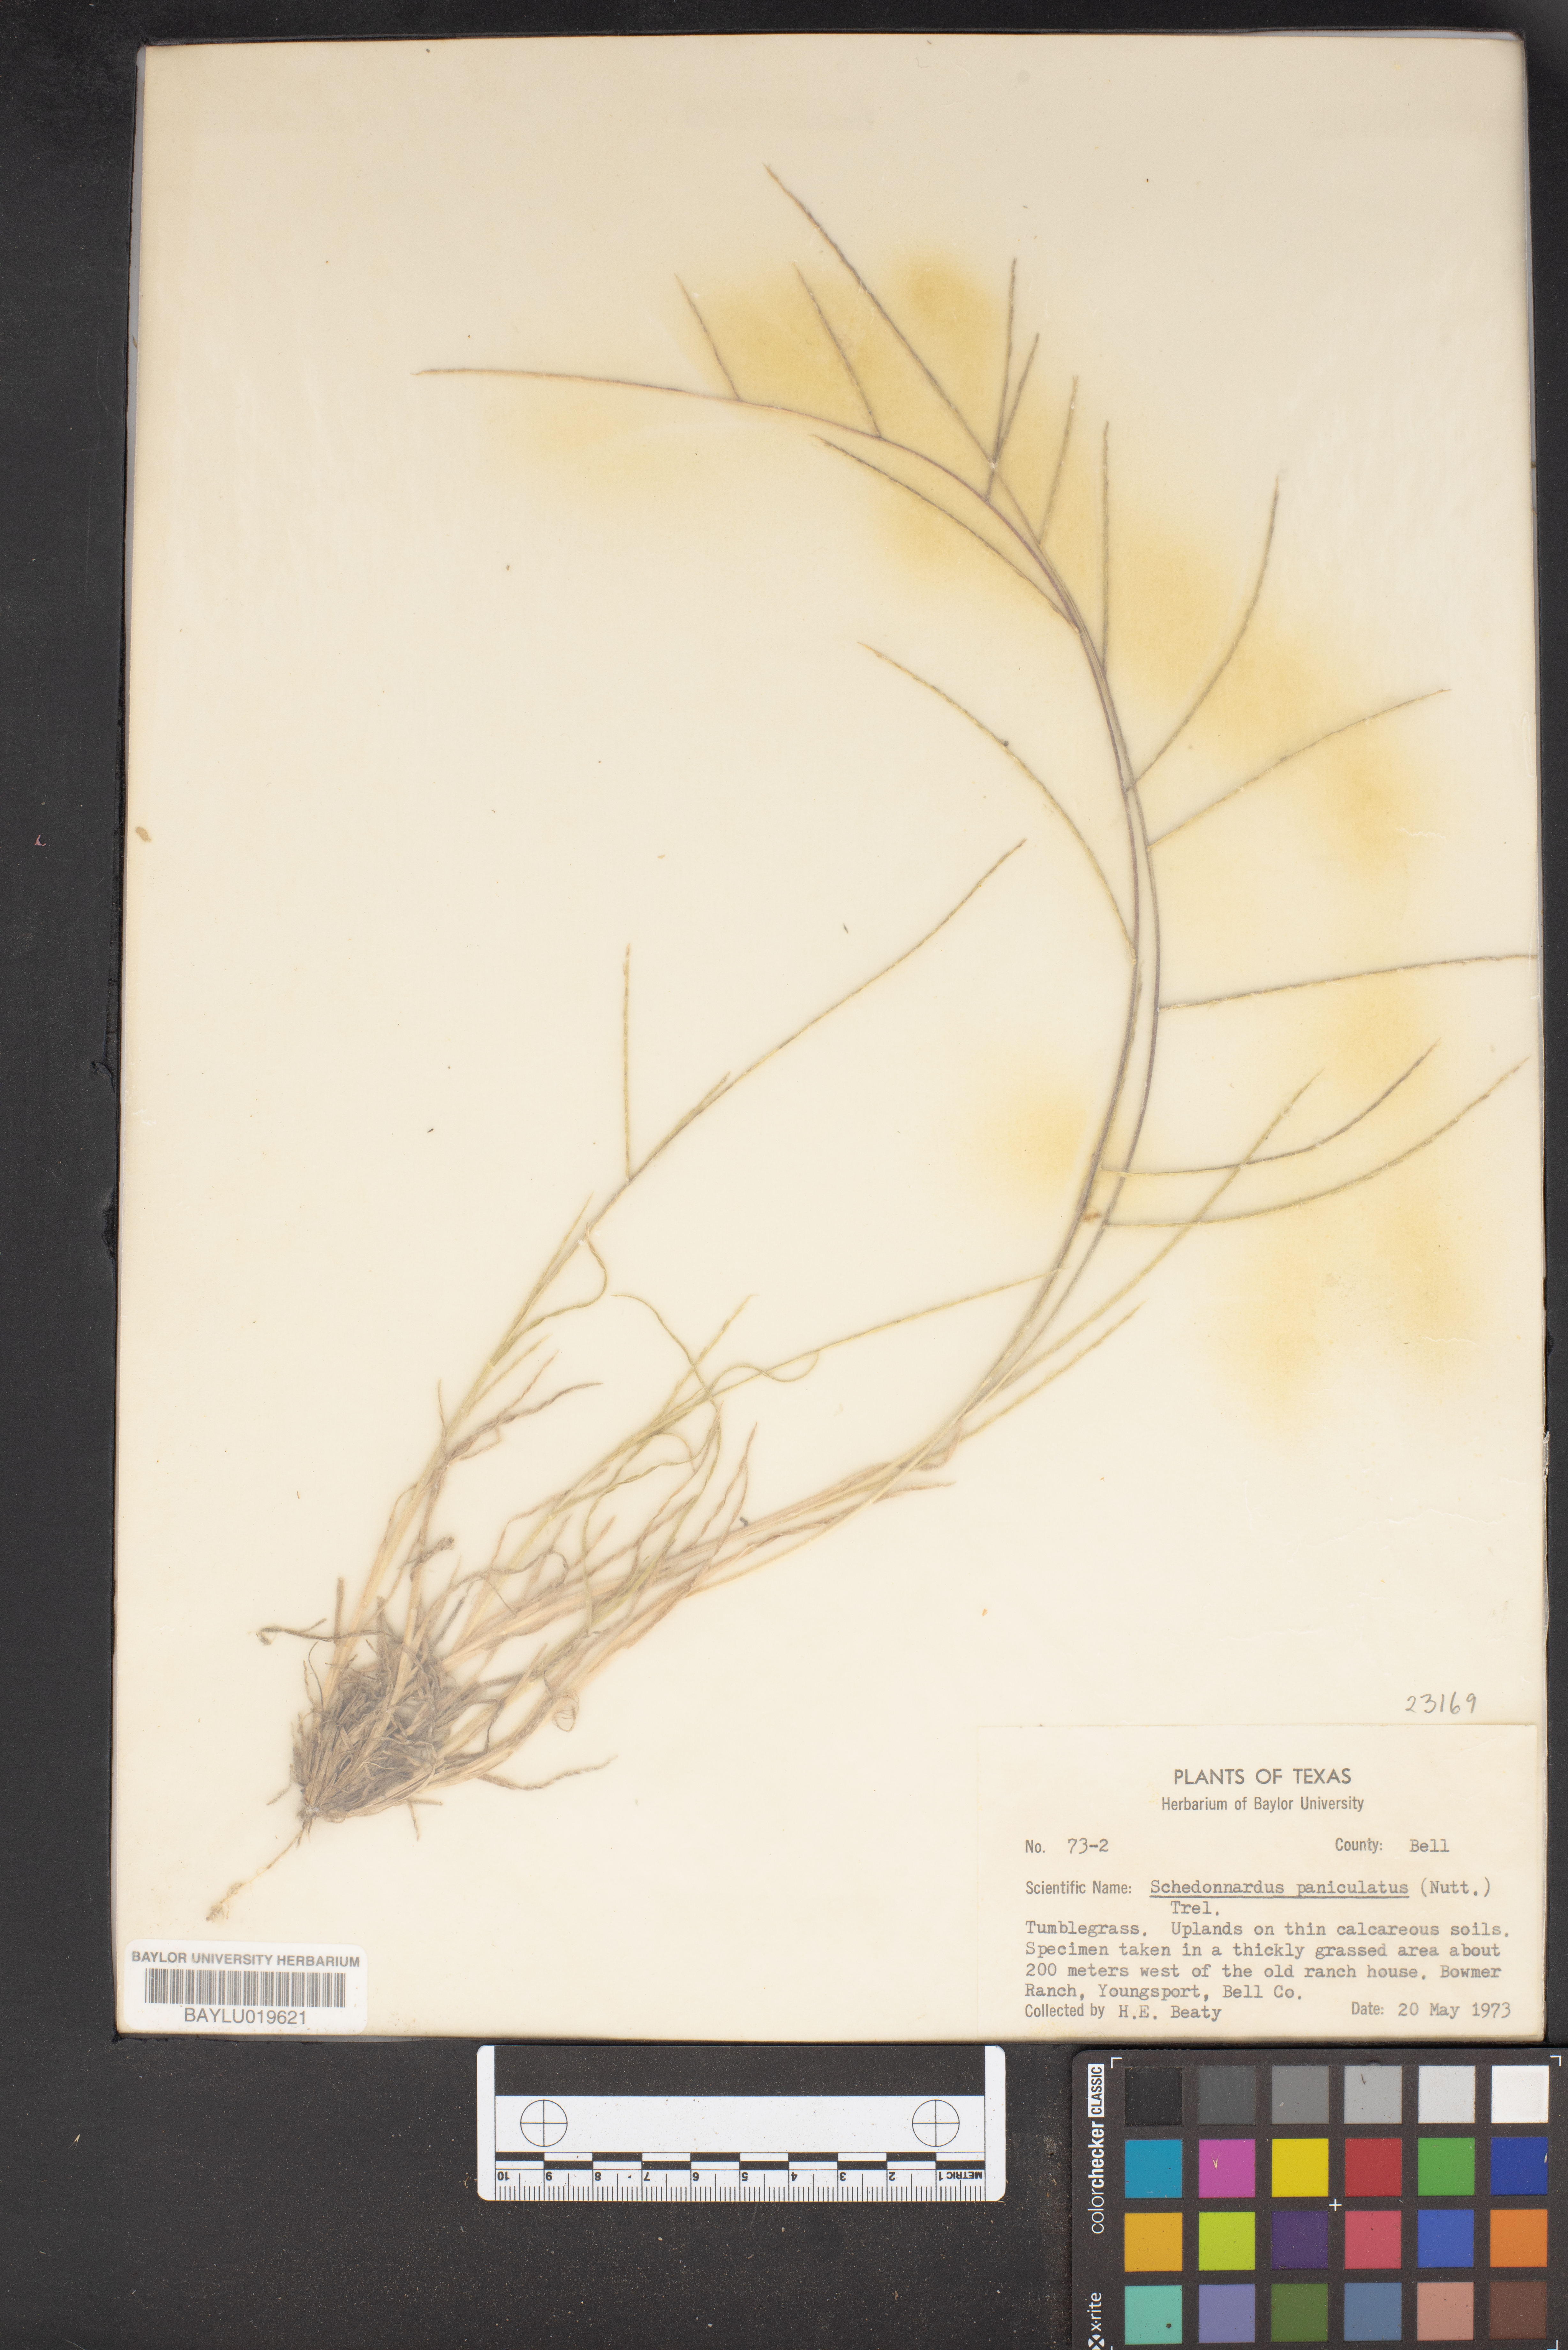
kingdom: Plantae
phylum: Tracheophyta
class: Liliopsida
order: Poales
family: Poaceae
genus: Muhlenbergia
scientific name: Muhlenbergia paniculata
